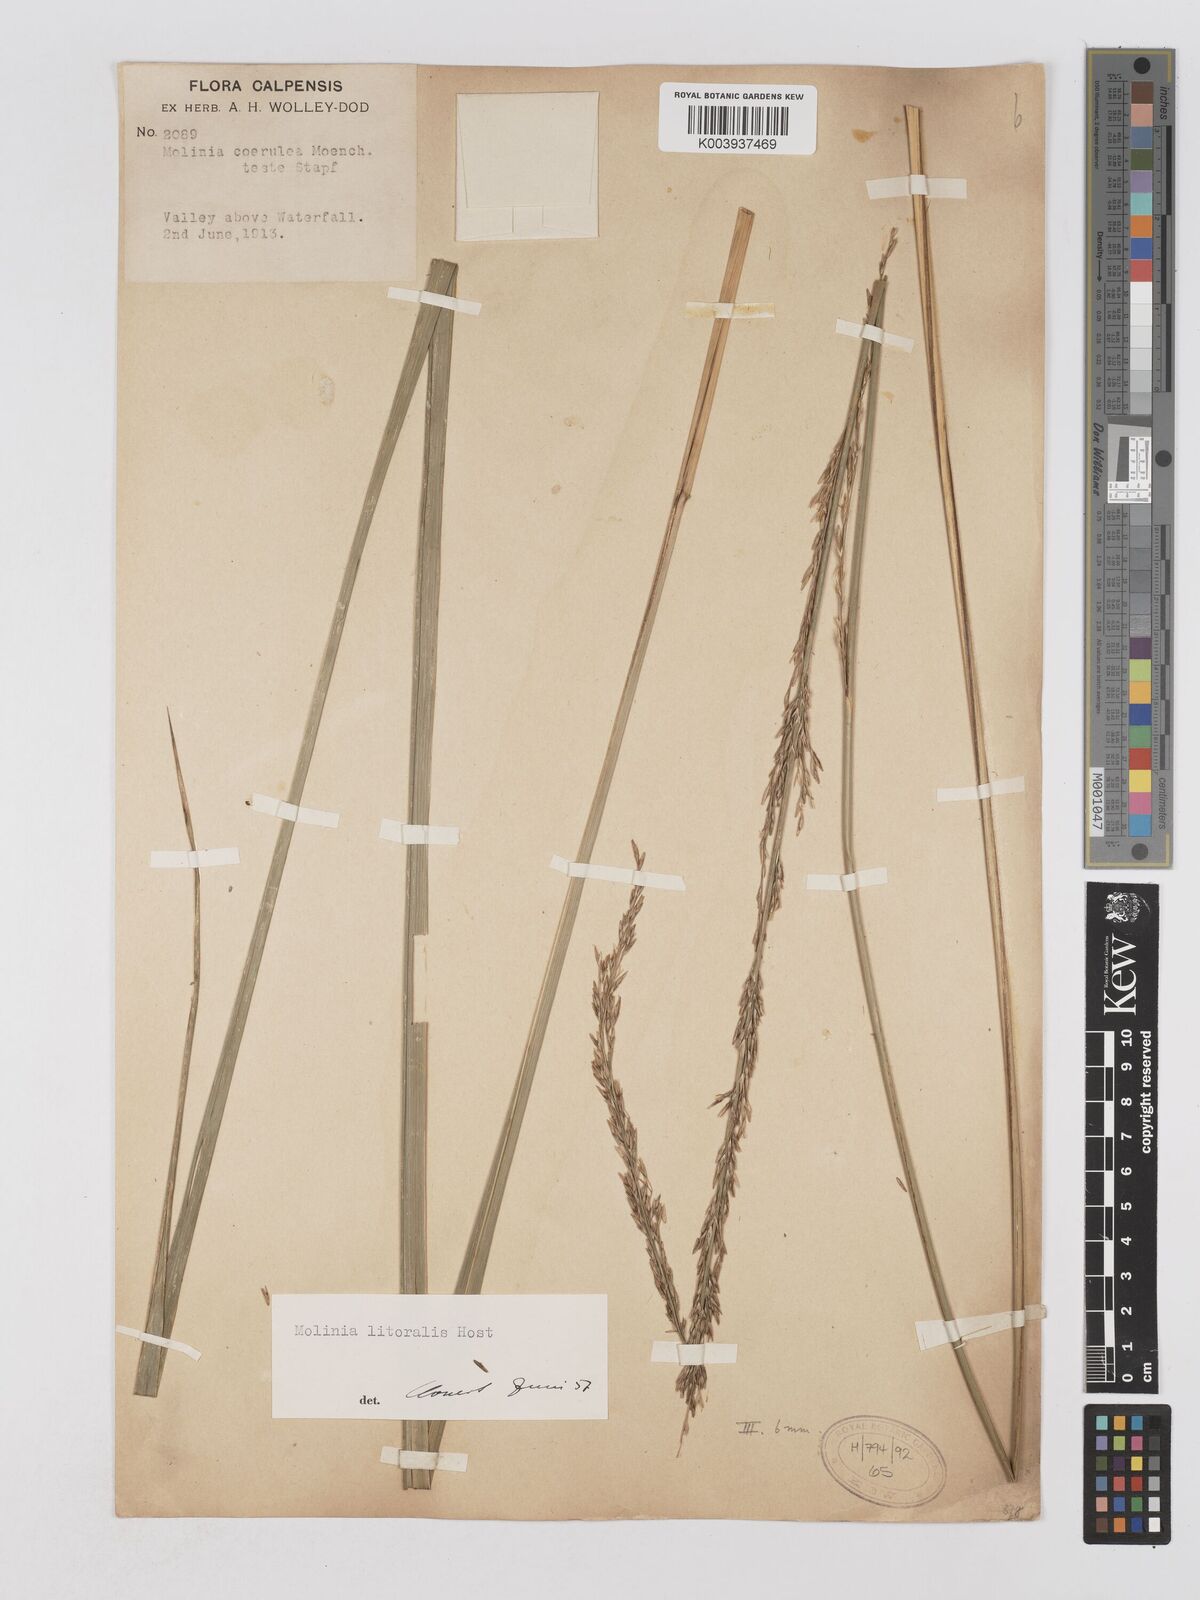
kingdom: Plantae
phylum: Tracheophyta
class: Liliopsida
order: Poales
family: Poaceae
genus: Molinia
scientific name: Molinia caerulea
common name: Purple moor-grass
